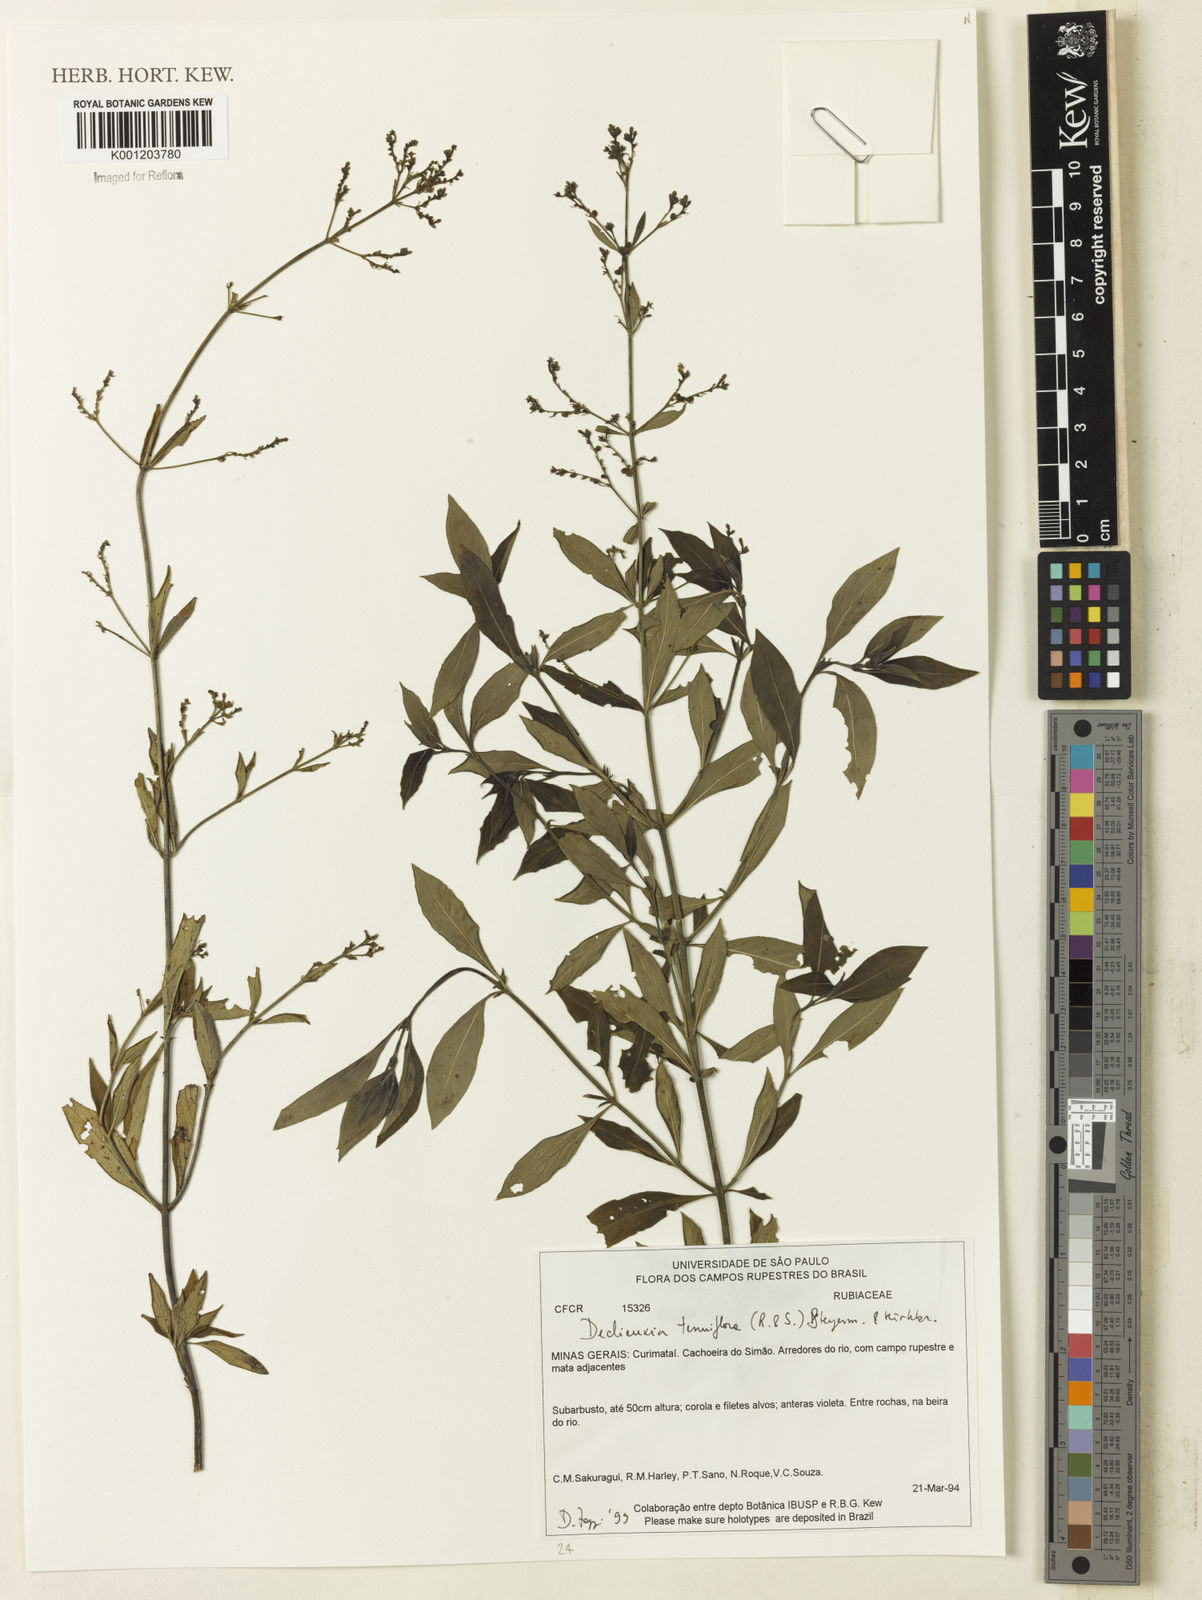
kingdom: Plantae
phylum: Tracheophyta
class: Magnoliopsida
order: Gentianales
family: Rubiaceae
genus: Declieuxia
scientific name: Declieuxia tenuiflora
